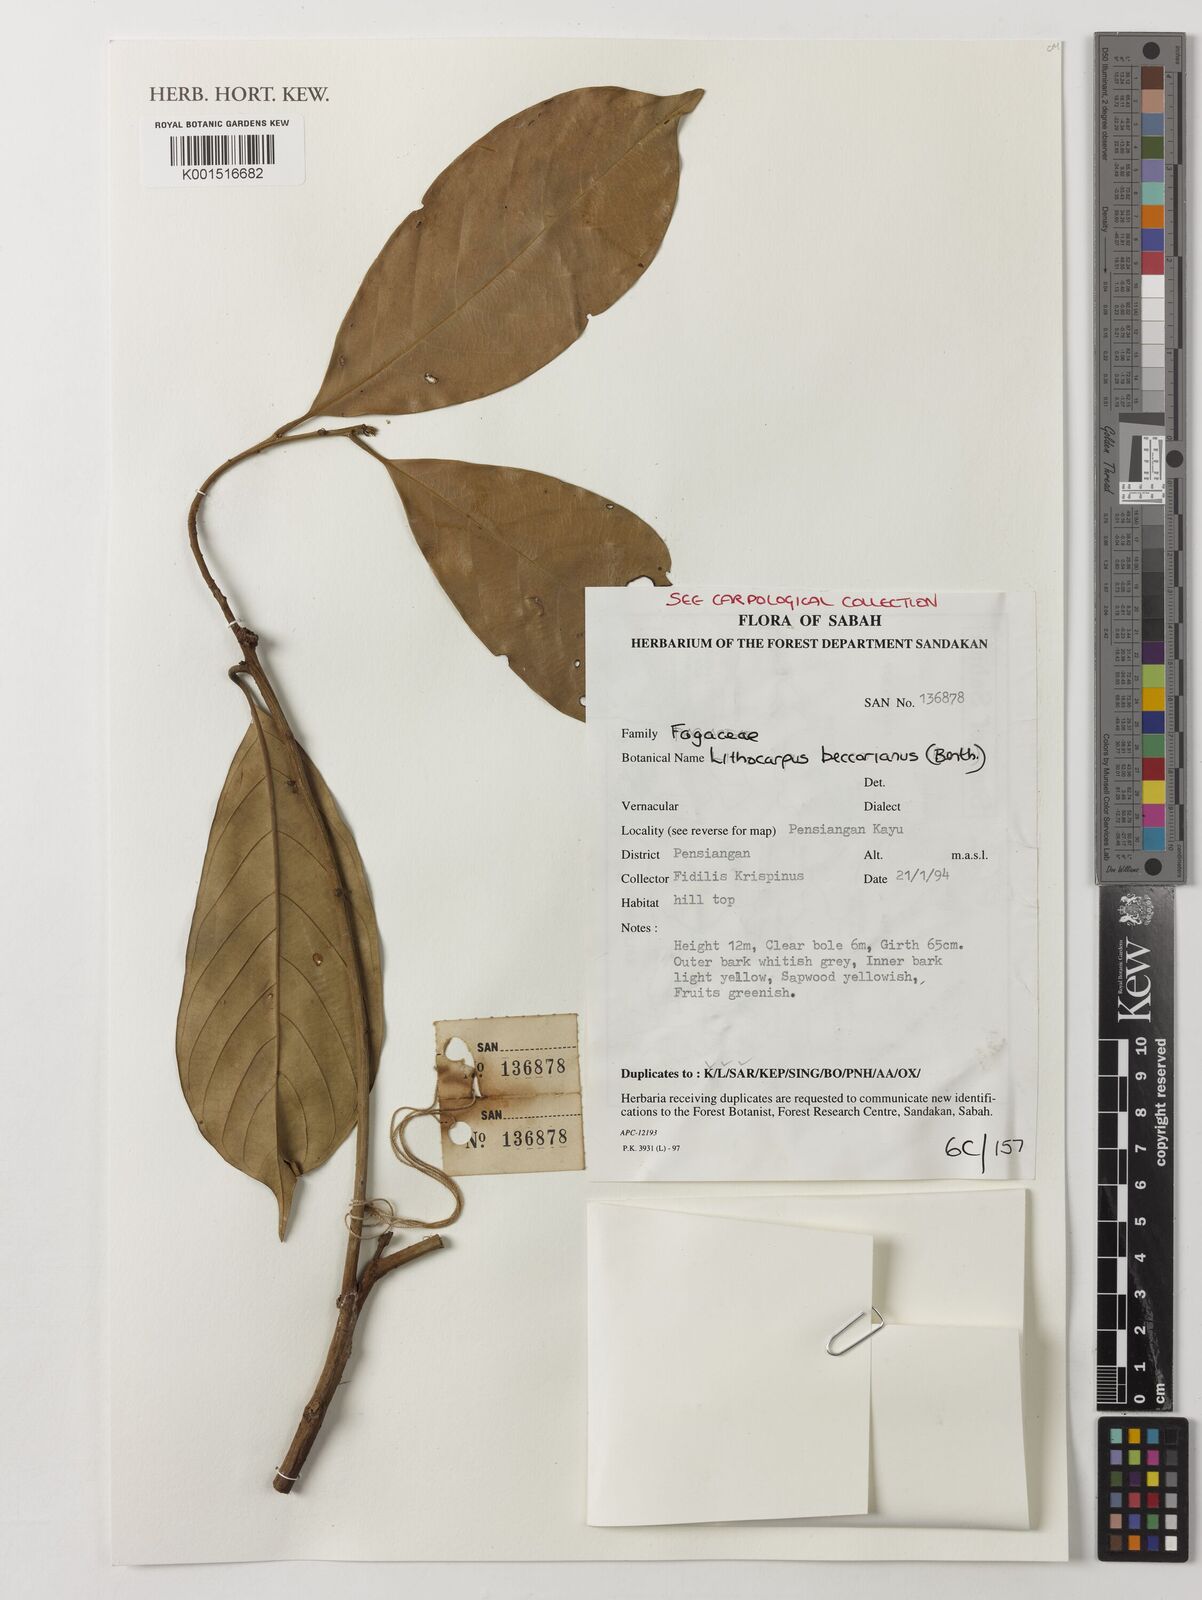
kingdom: Plantae
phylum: Tracheophyta
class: Magnoliopsida
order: Fagales
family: Fagaceae
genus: Lithocarpus
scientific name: Lithocarpus beccarianus
